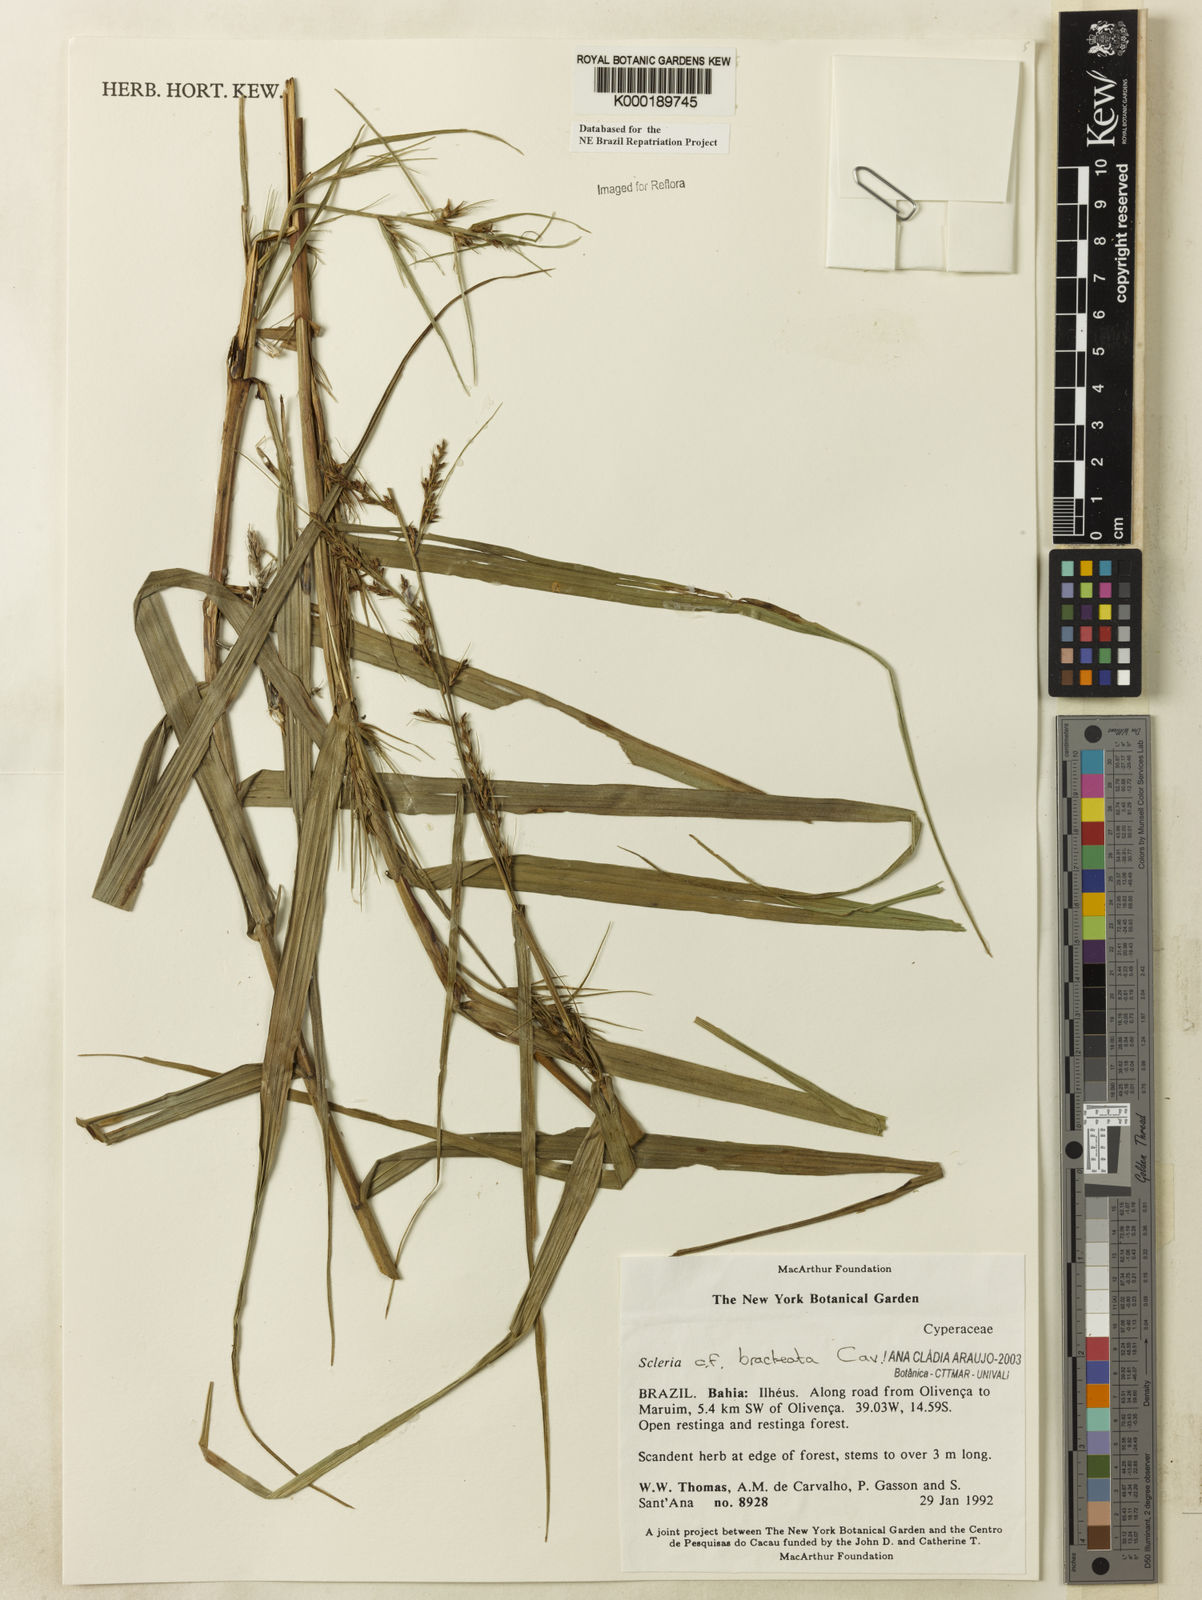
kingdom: Plantae
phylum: Tracheophyta
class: Liliopsida
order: Poales
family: Cyperaceae
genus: Scleria
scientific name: Scleria bracteata
